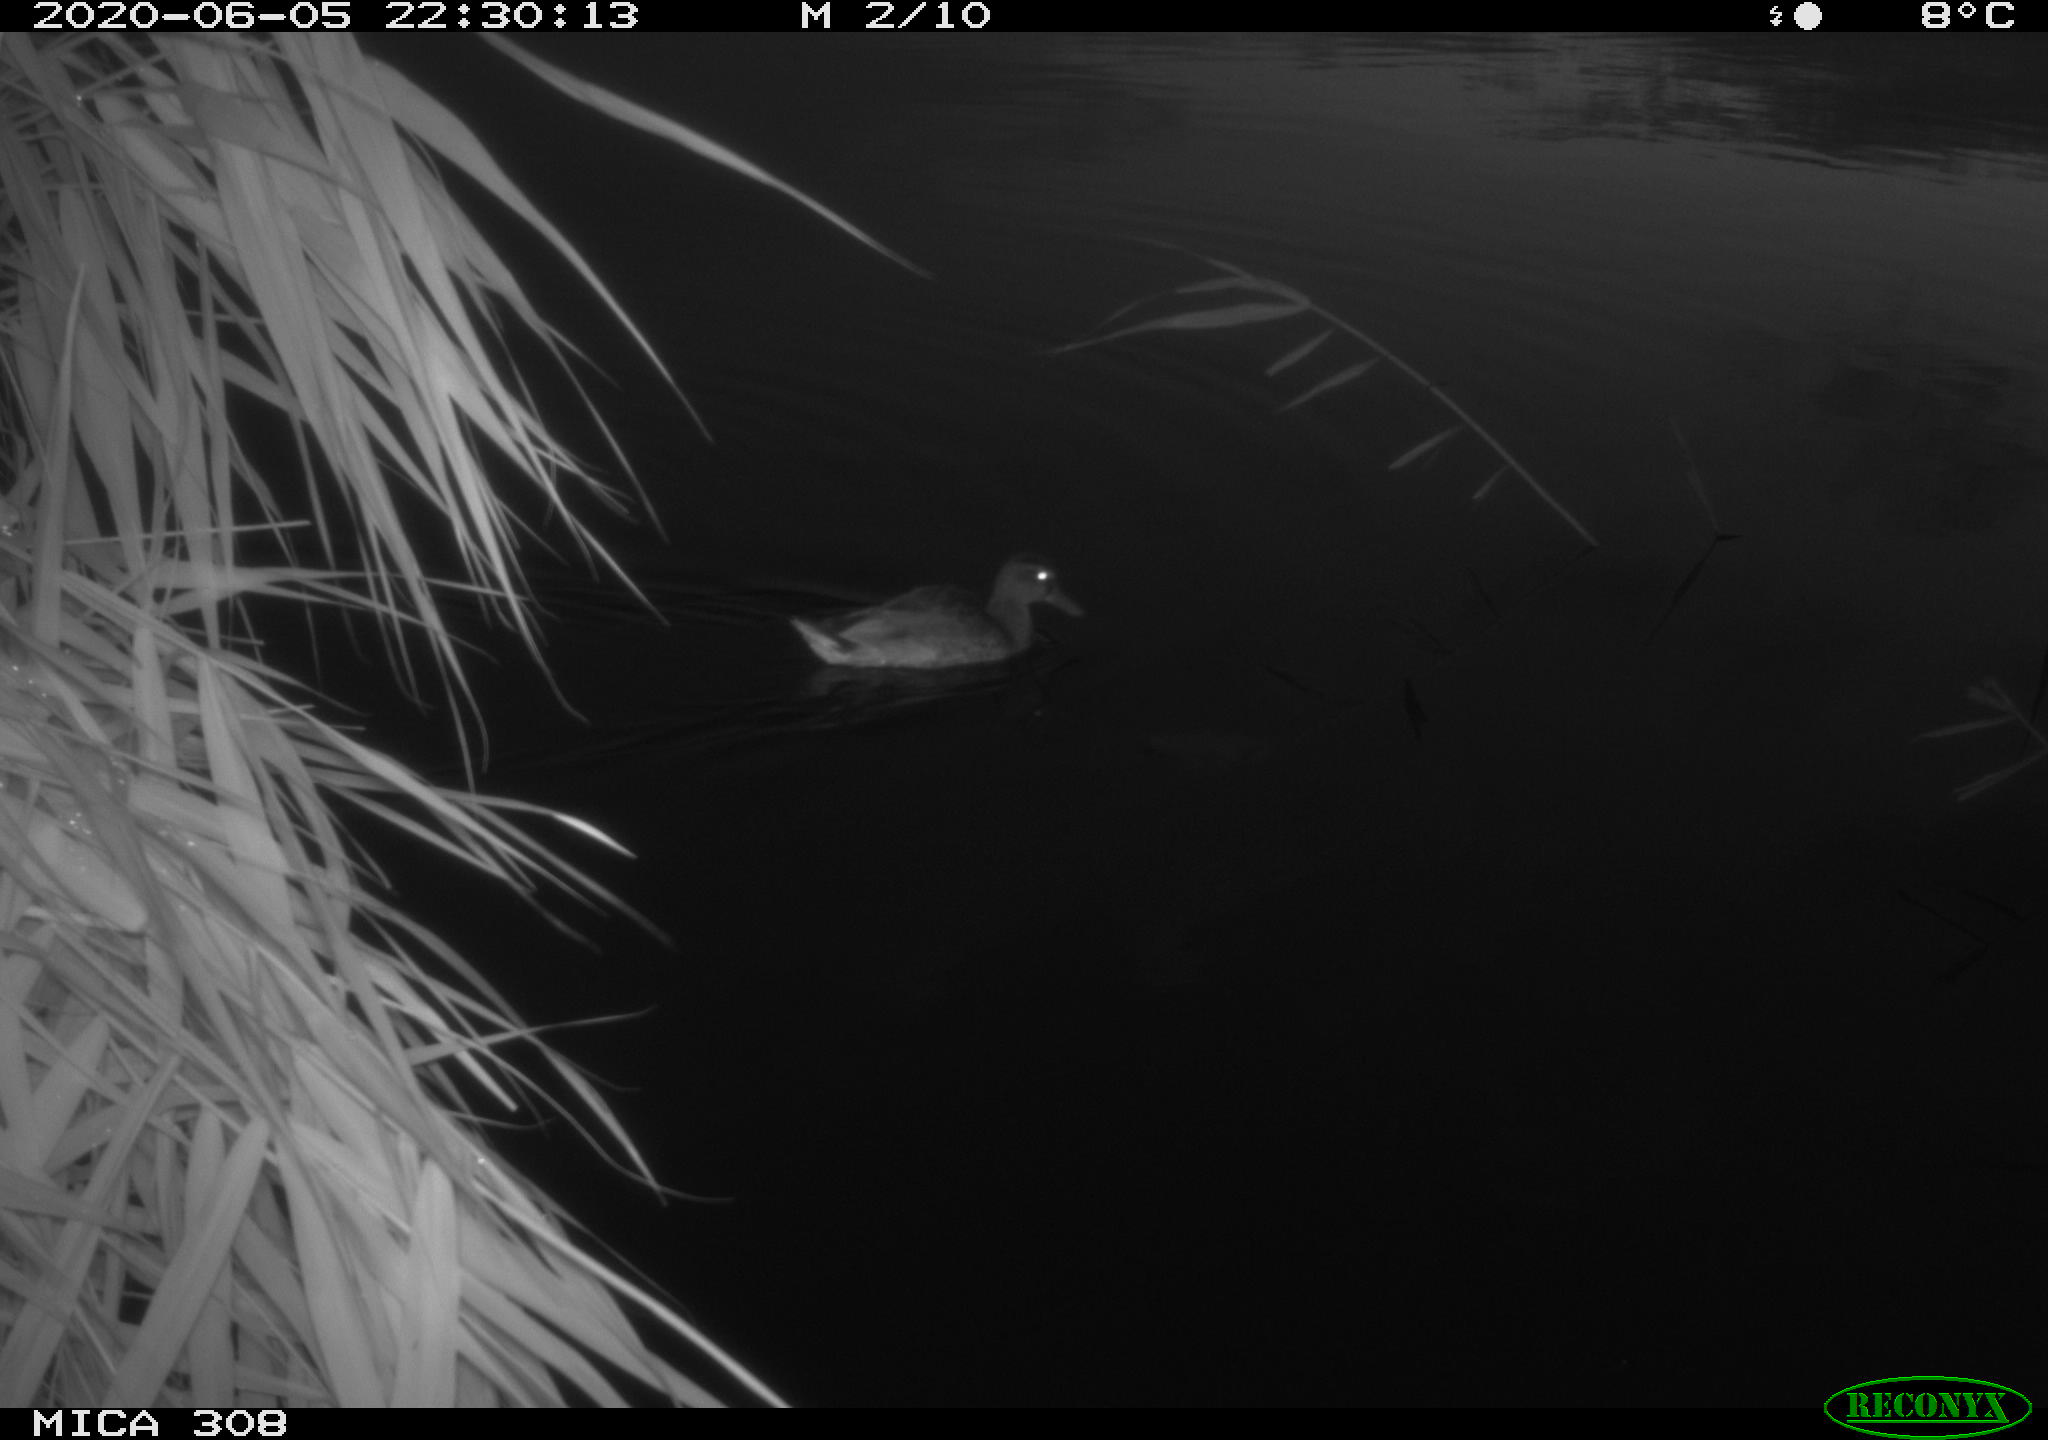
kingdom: Animalia
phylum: Chordata
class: Aves
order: Anseriformes
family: Anatidae
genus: Anas
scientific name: Anas platyrhynchos
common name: Mallard
